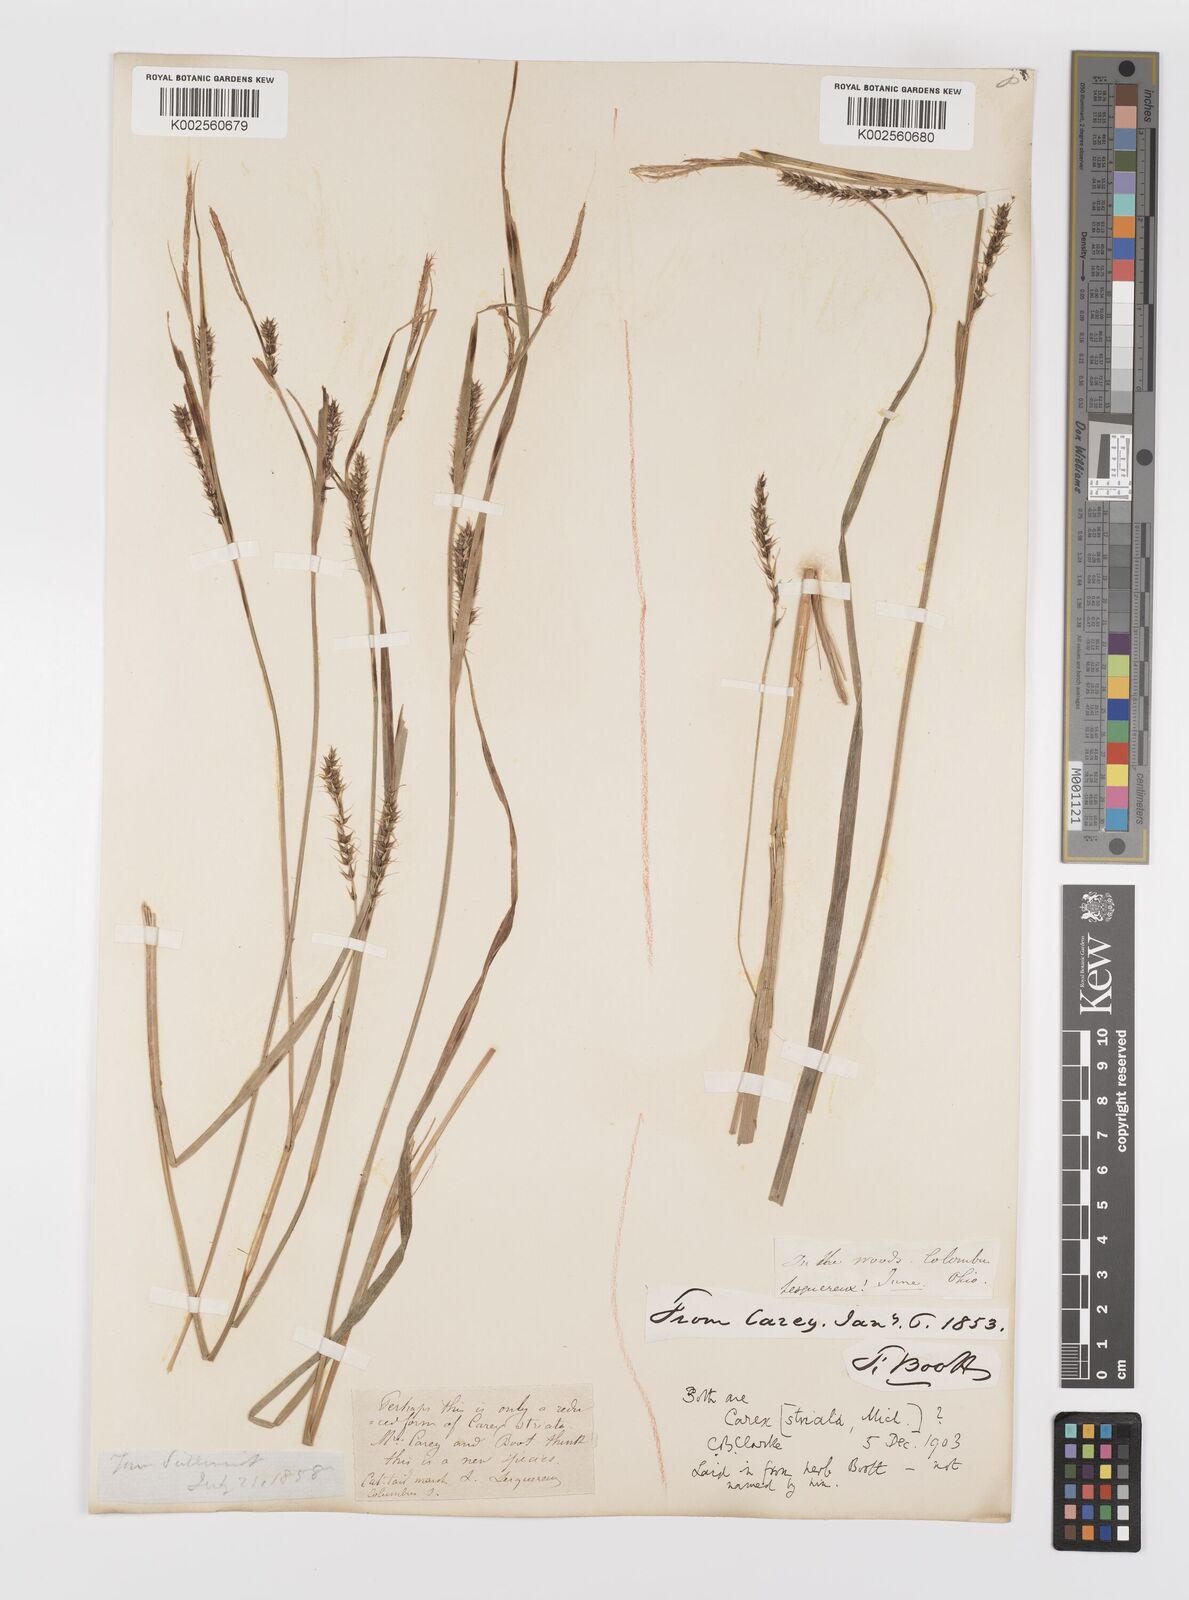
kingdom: Plantae
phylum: Tracheophyta
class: Liliopsida
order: Poales
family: Cyperaceae
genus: Carex
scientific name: Carex striata
